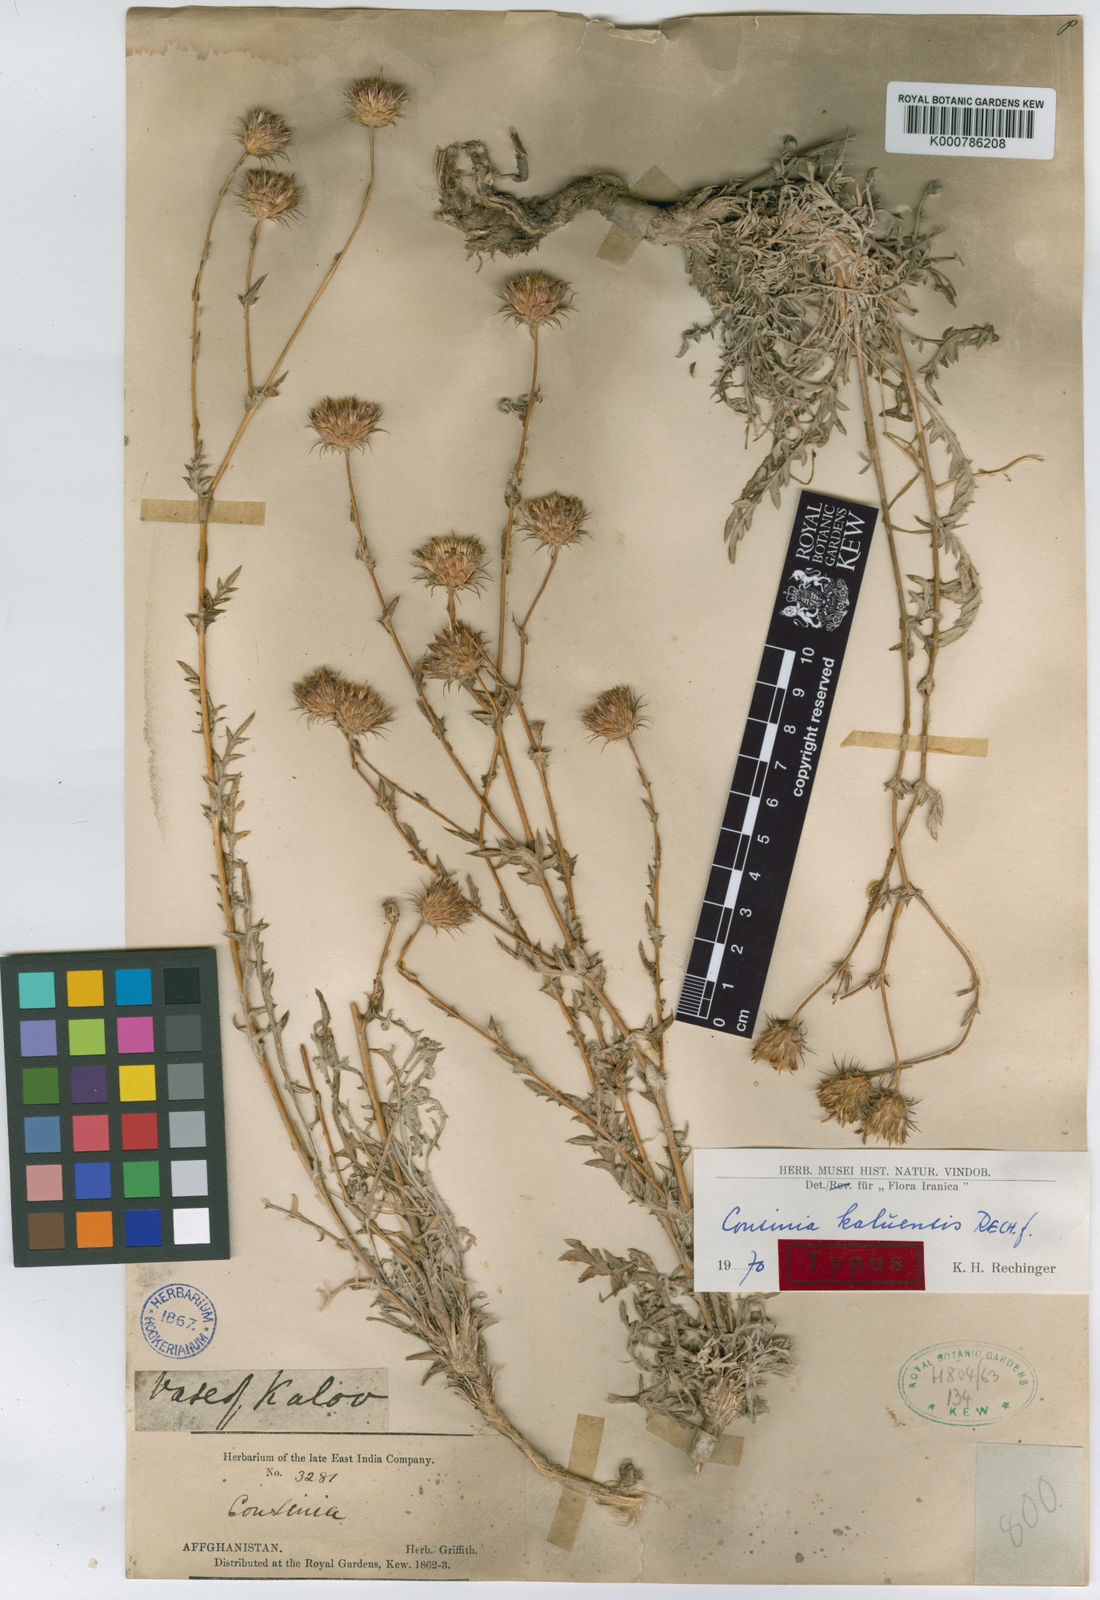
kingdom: Plantae
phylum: Tracheophyta
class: Magnoliopsida
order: Asterales
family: Asteraceae
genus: Cousinia
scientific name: Cousinia kaluensis
